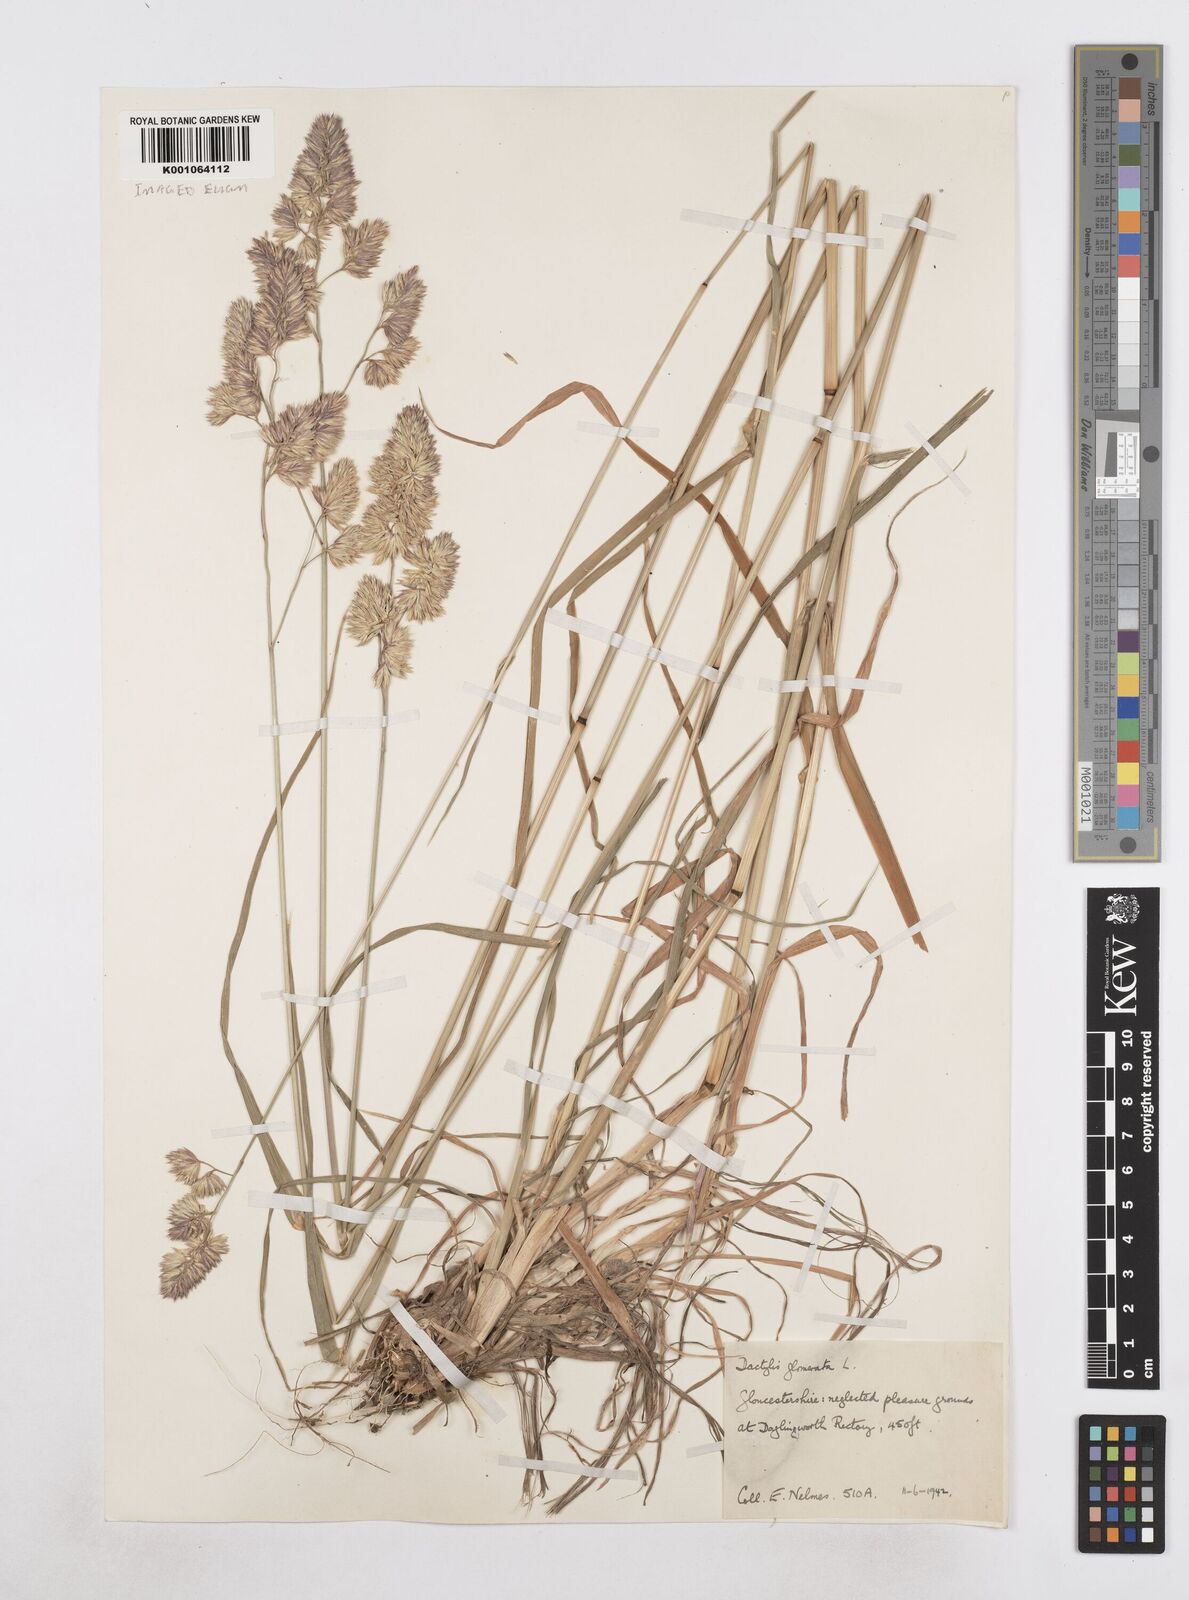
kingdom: Plantae
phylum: Tracheophyta
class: Liliopsida
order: Poales
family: Poaceae
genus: Dactylis
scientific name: Dactylis glomerata
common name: Orchardgrass
